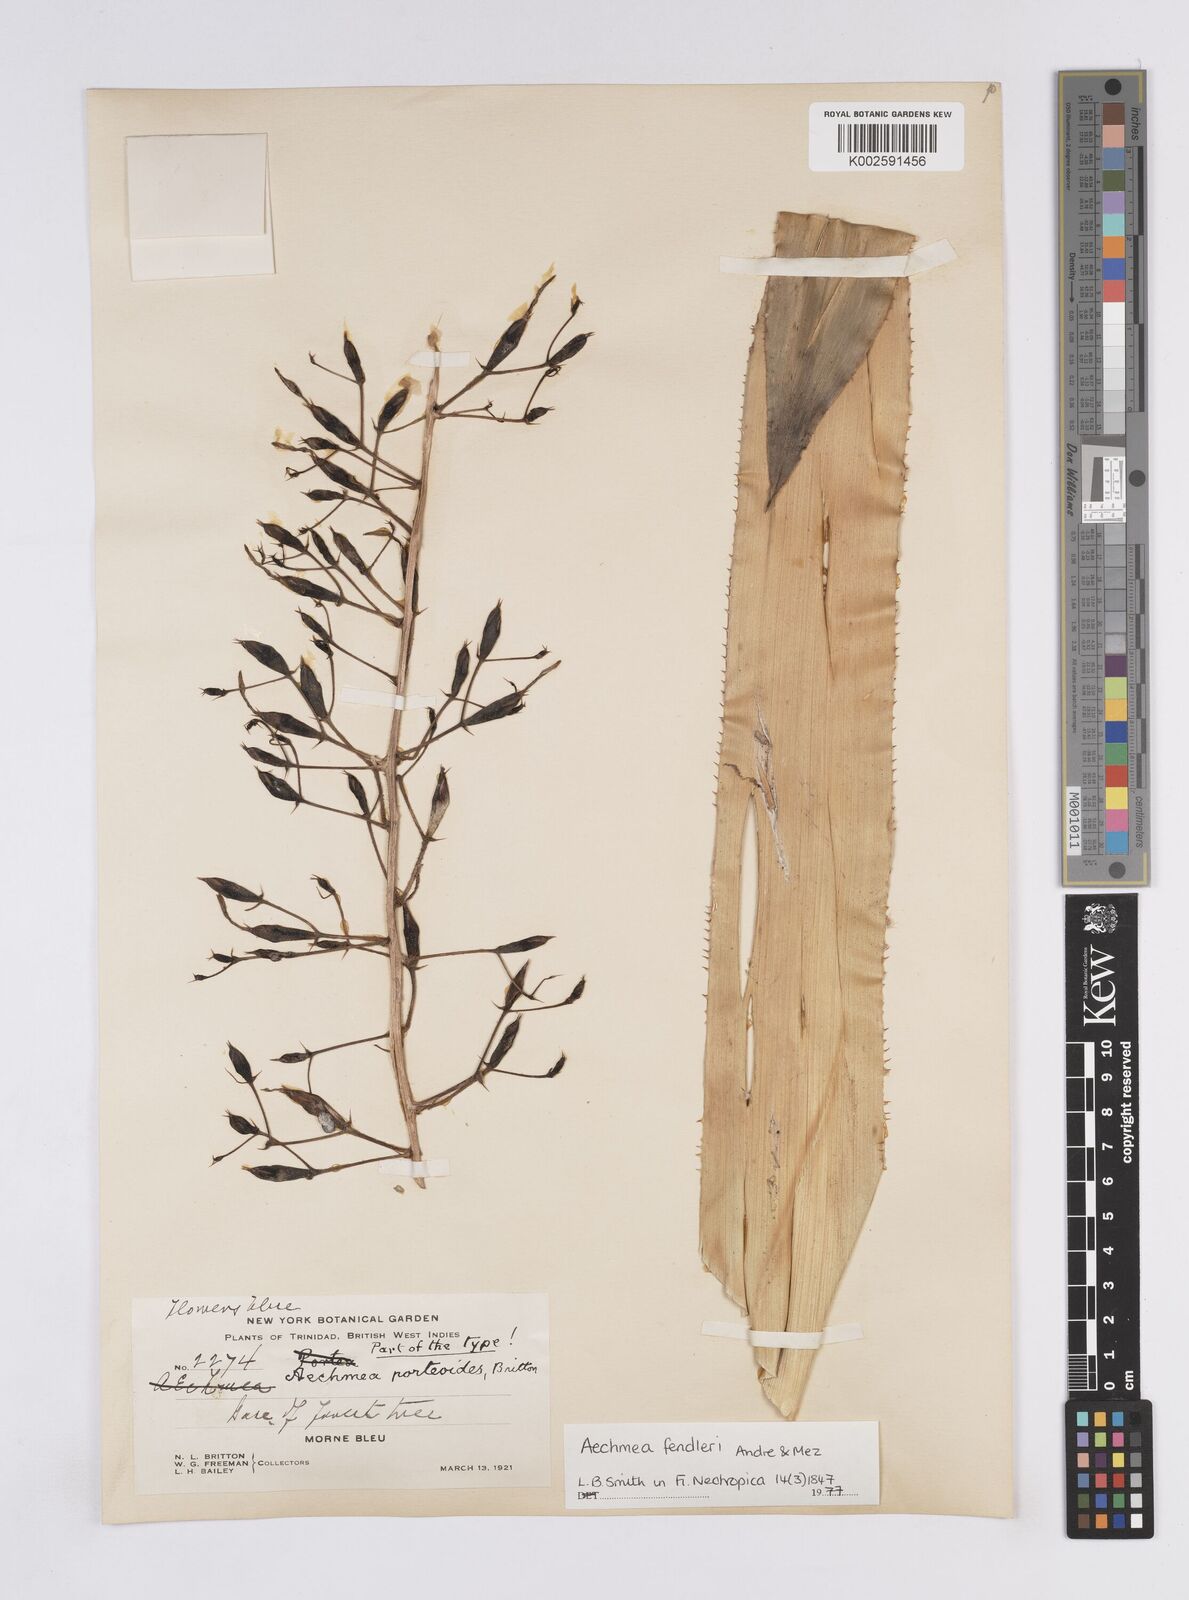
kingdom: Plantae
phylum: Tracheophyta
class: Liliopsida
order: Poales
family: Bromeliaceae
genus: Aechmea
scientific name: Aechmea fendleri
